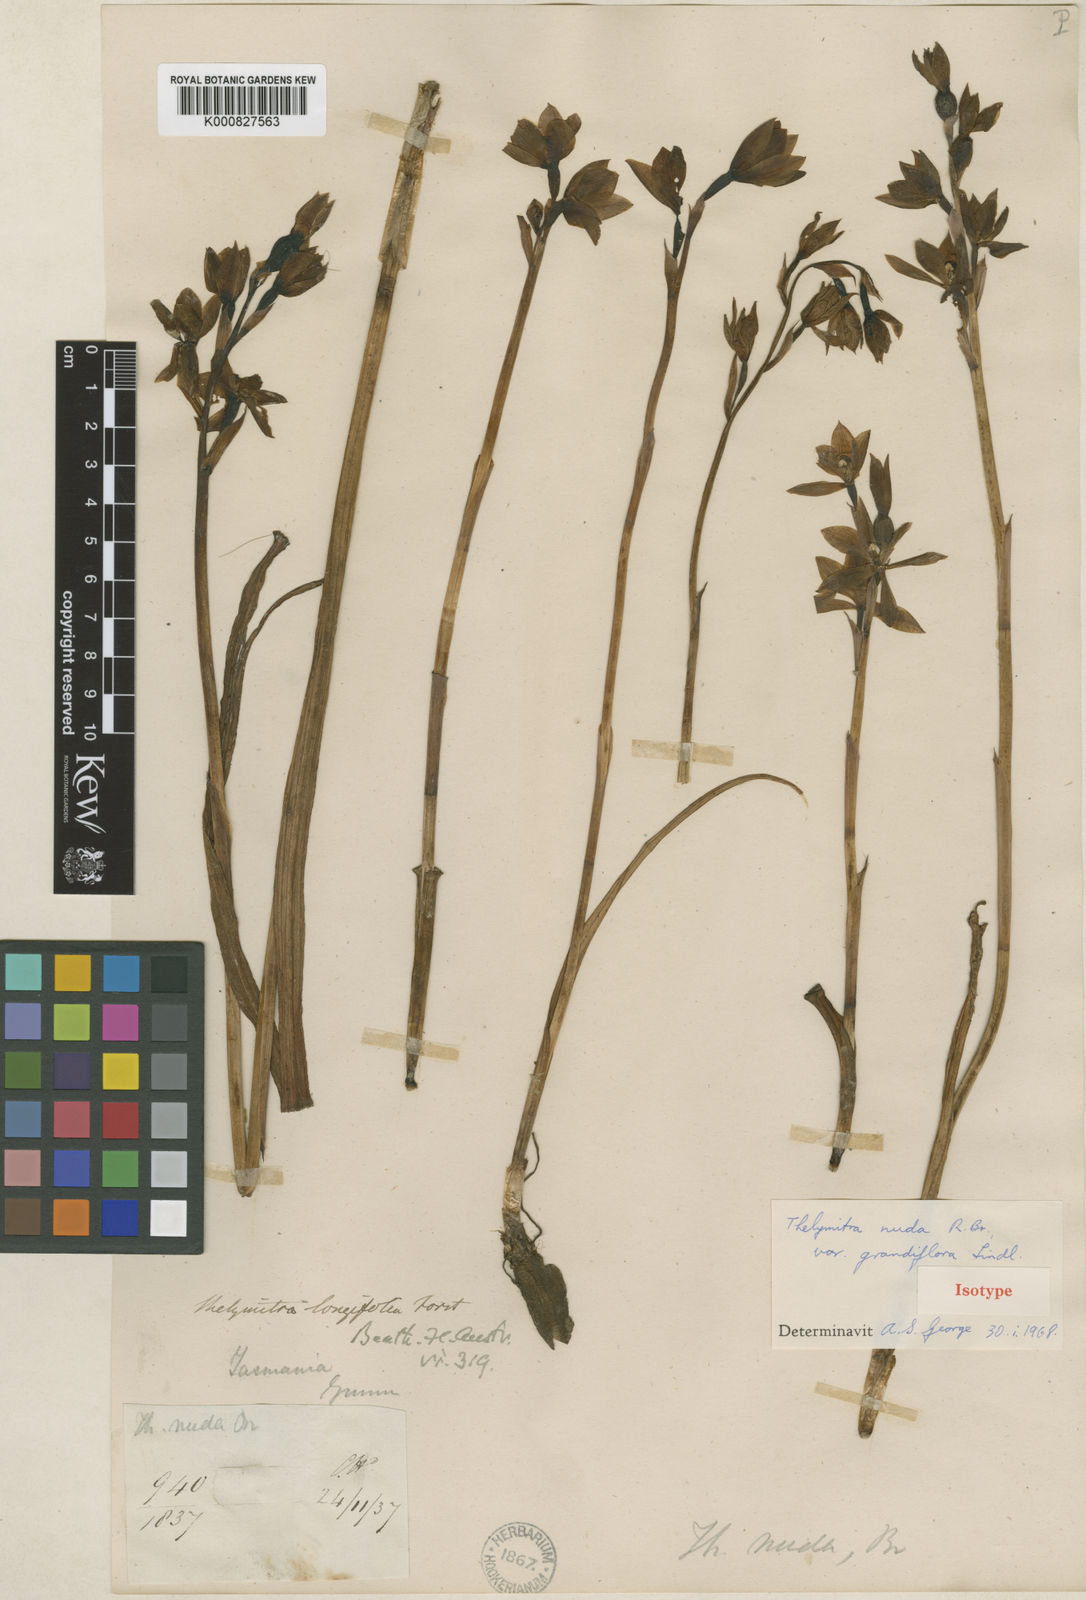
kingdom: Plantae
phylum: Tracheophyta
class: Liliopsida
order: Asparagales
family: Orchidaceae
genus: Thelymitra
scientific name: Thelymitra nuda
